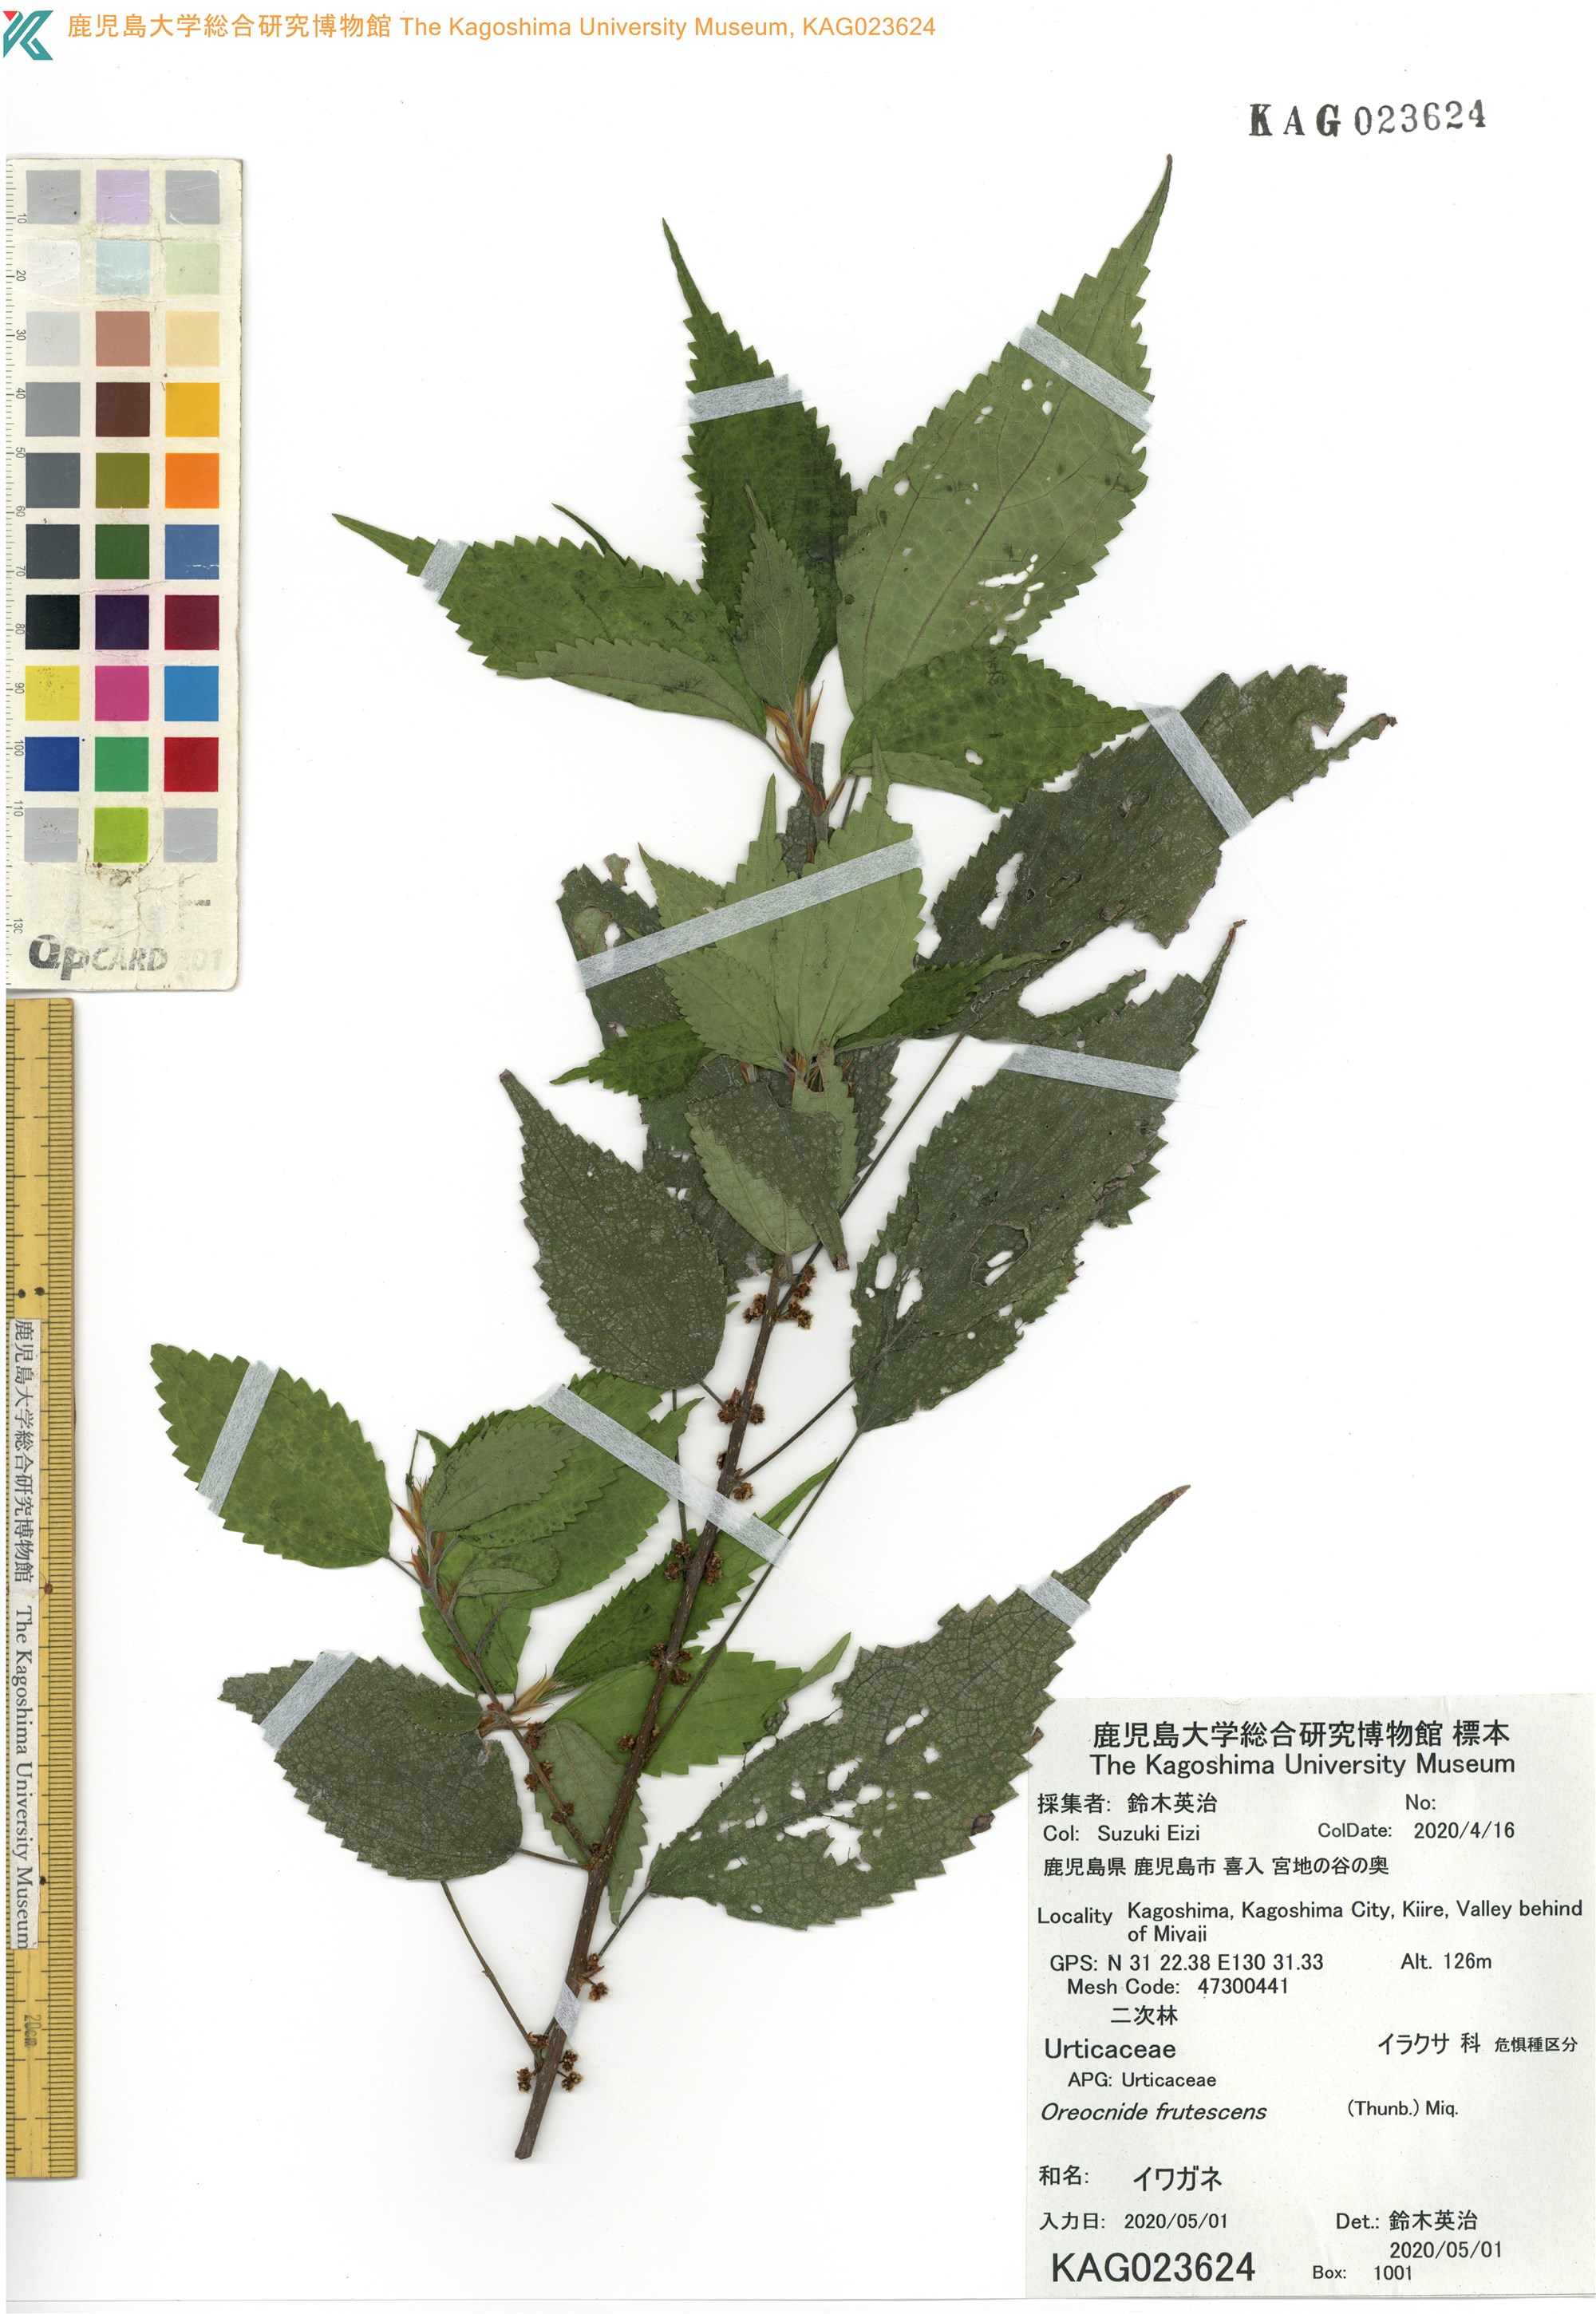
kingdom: Plantae
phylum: Tracheophyta
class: Magnoliopsida
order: Rosales
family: Urticaceae
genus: Oreocnide
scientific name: Oreocnide frutescens
